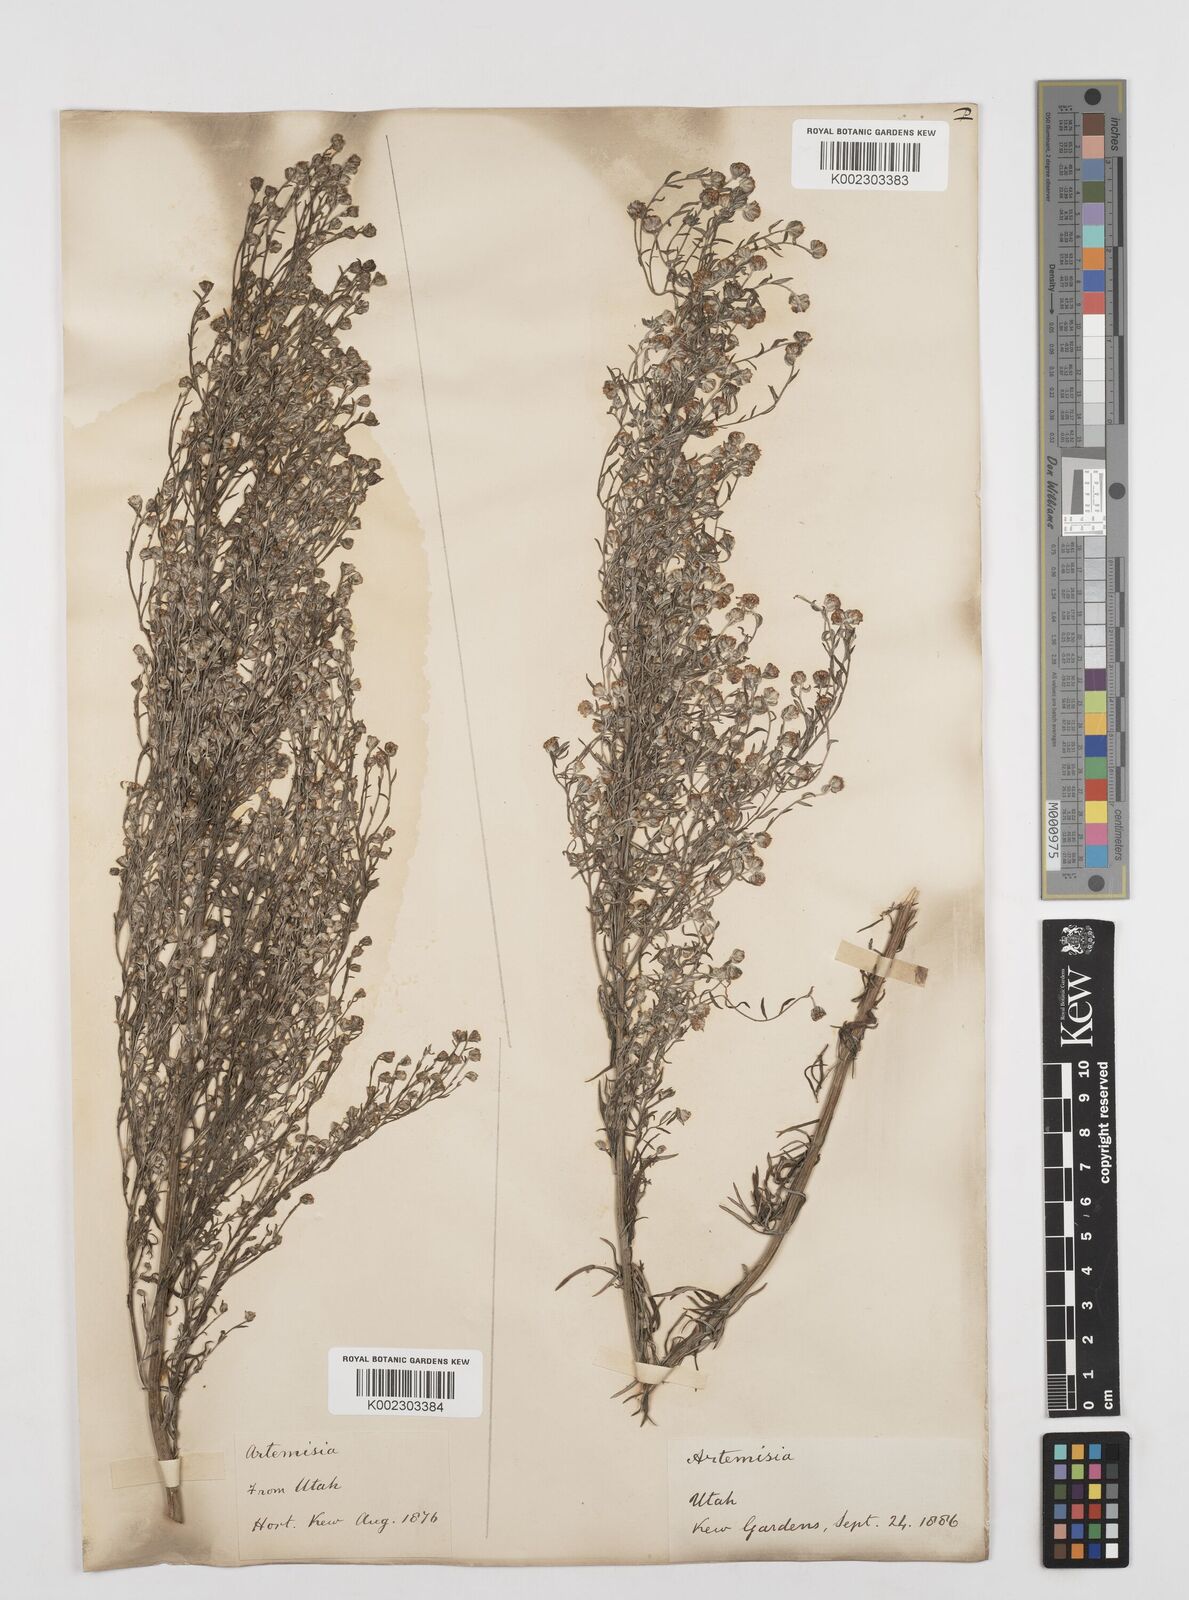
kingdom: Plantae
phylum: Tracheophyta
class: Magnoliopsida
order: Asterales
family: Asteraceae
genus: Artemisia
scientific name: Artemisia
